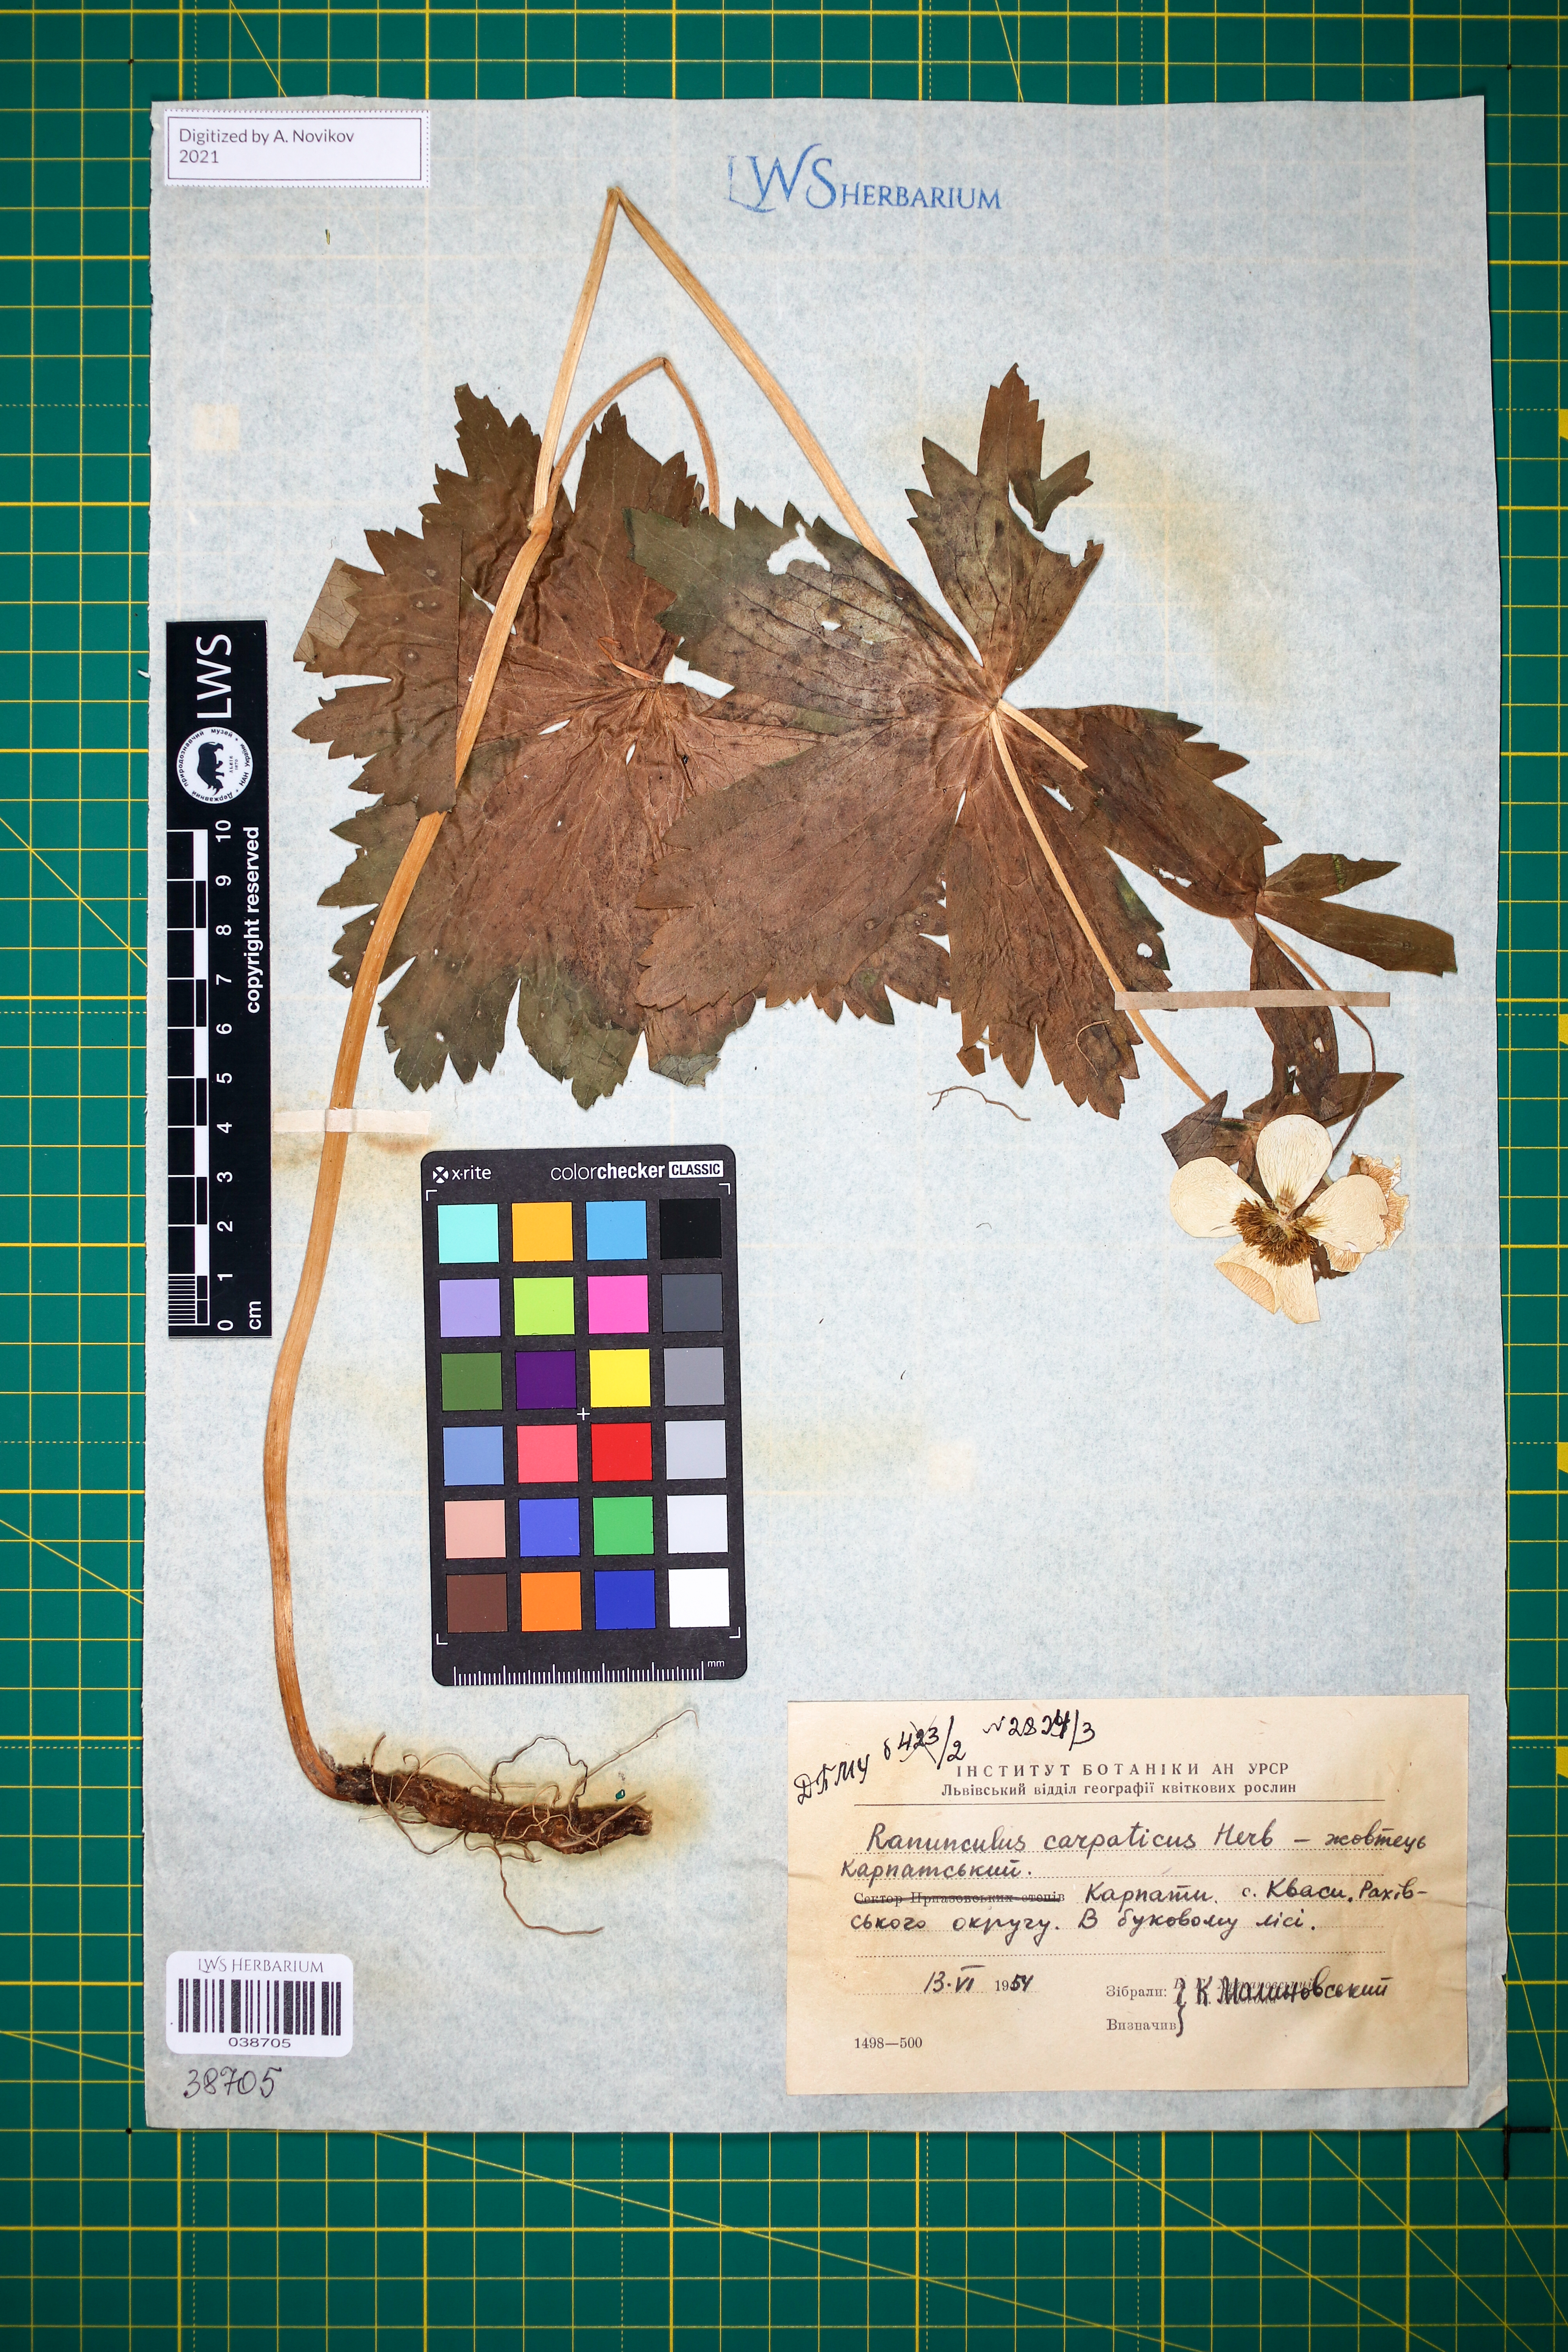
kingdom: Plantae
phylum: Tracheophyta
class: Magnoliopsida
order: Ranunculales
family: Ranunculaceae
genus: Ranunculus
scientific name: Ranunculus carpaticus
